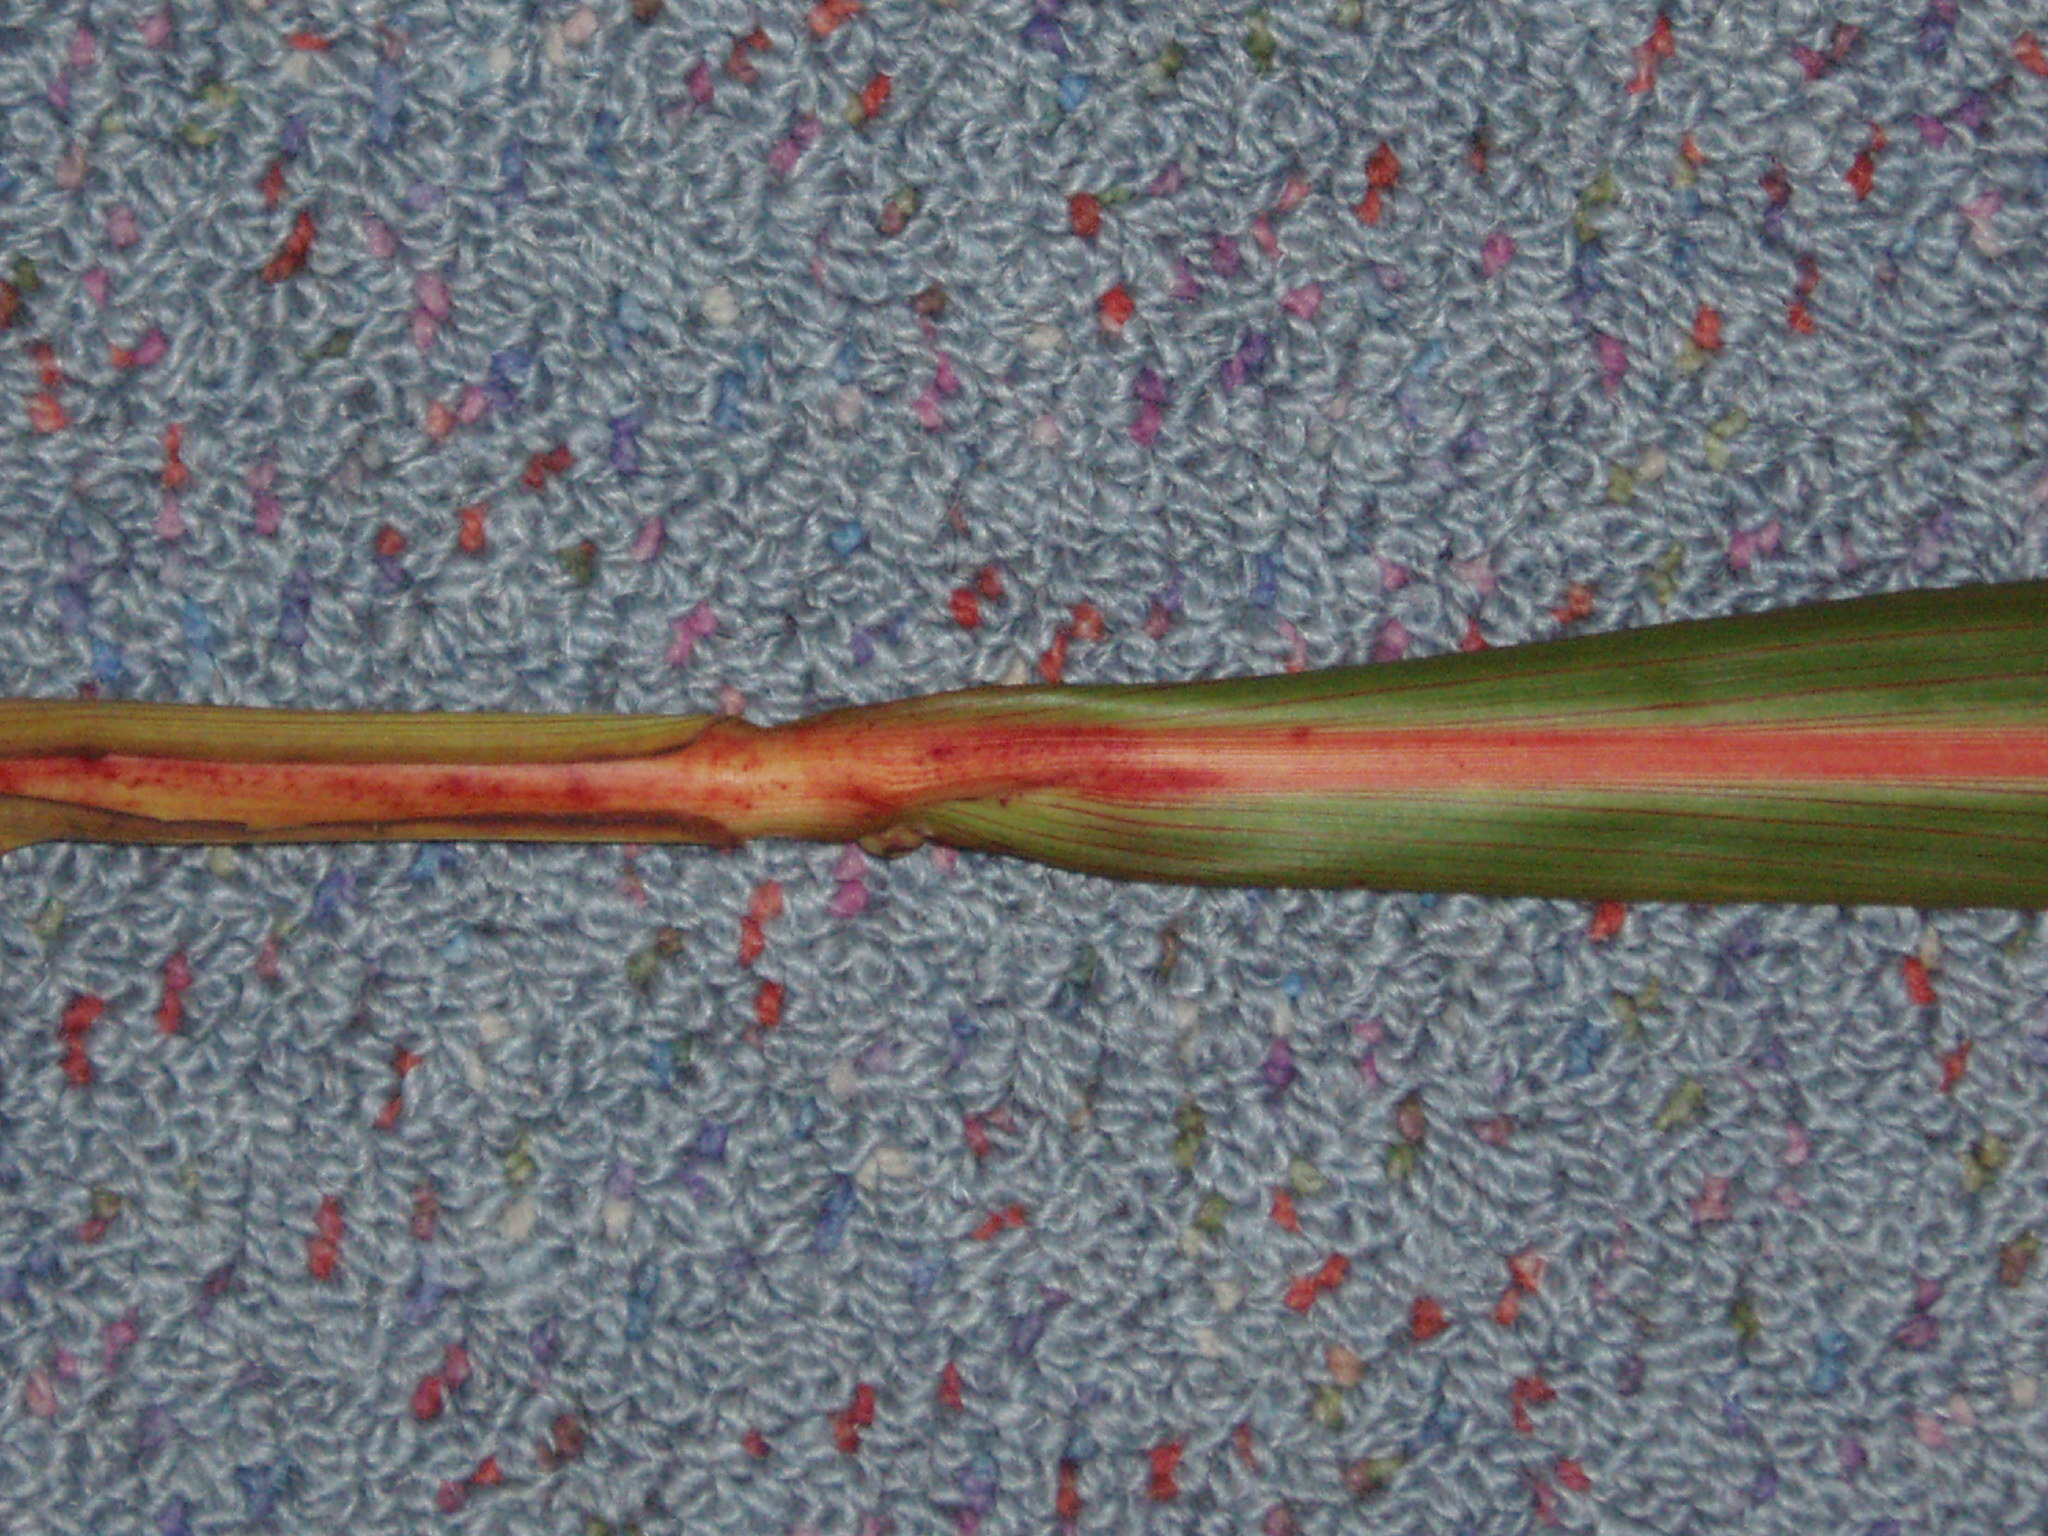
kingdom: Plantae
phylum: Tracheophyta
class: Liliopsida
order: Asparagales
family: Asparagaceae
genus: Cordyline
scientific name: Cordyline banksii
